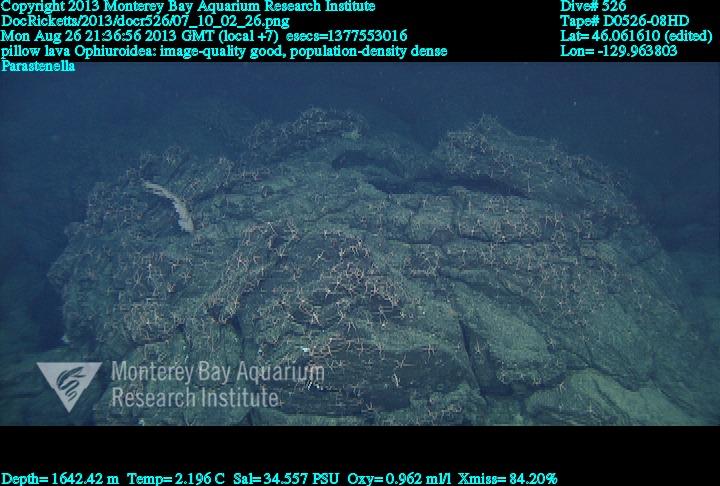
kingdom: Animalia
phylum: Cnidaria
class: Anthozoa
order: Scleralcyonacea
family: Primnoidae
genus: Parastenella
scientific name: Parastenella
